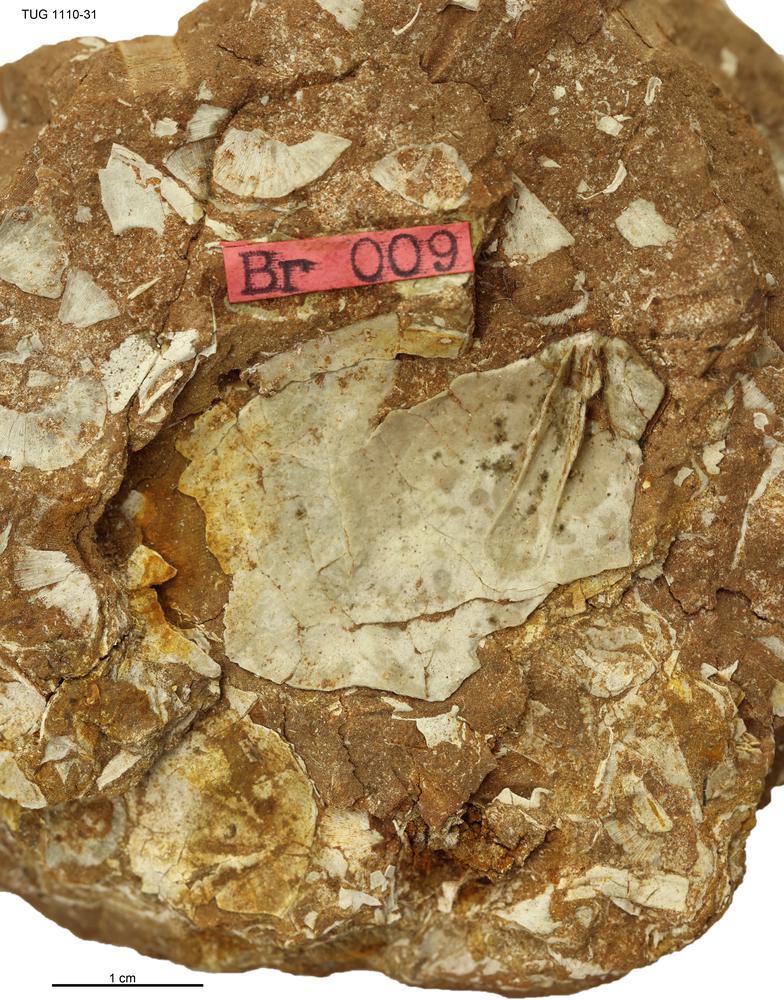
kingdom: Animalia
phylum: Brachiopoda
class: Rhynchonellata
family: Porambonitidae
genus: Porambonites
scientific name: Porambonites
